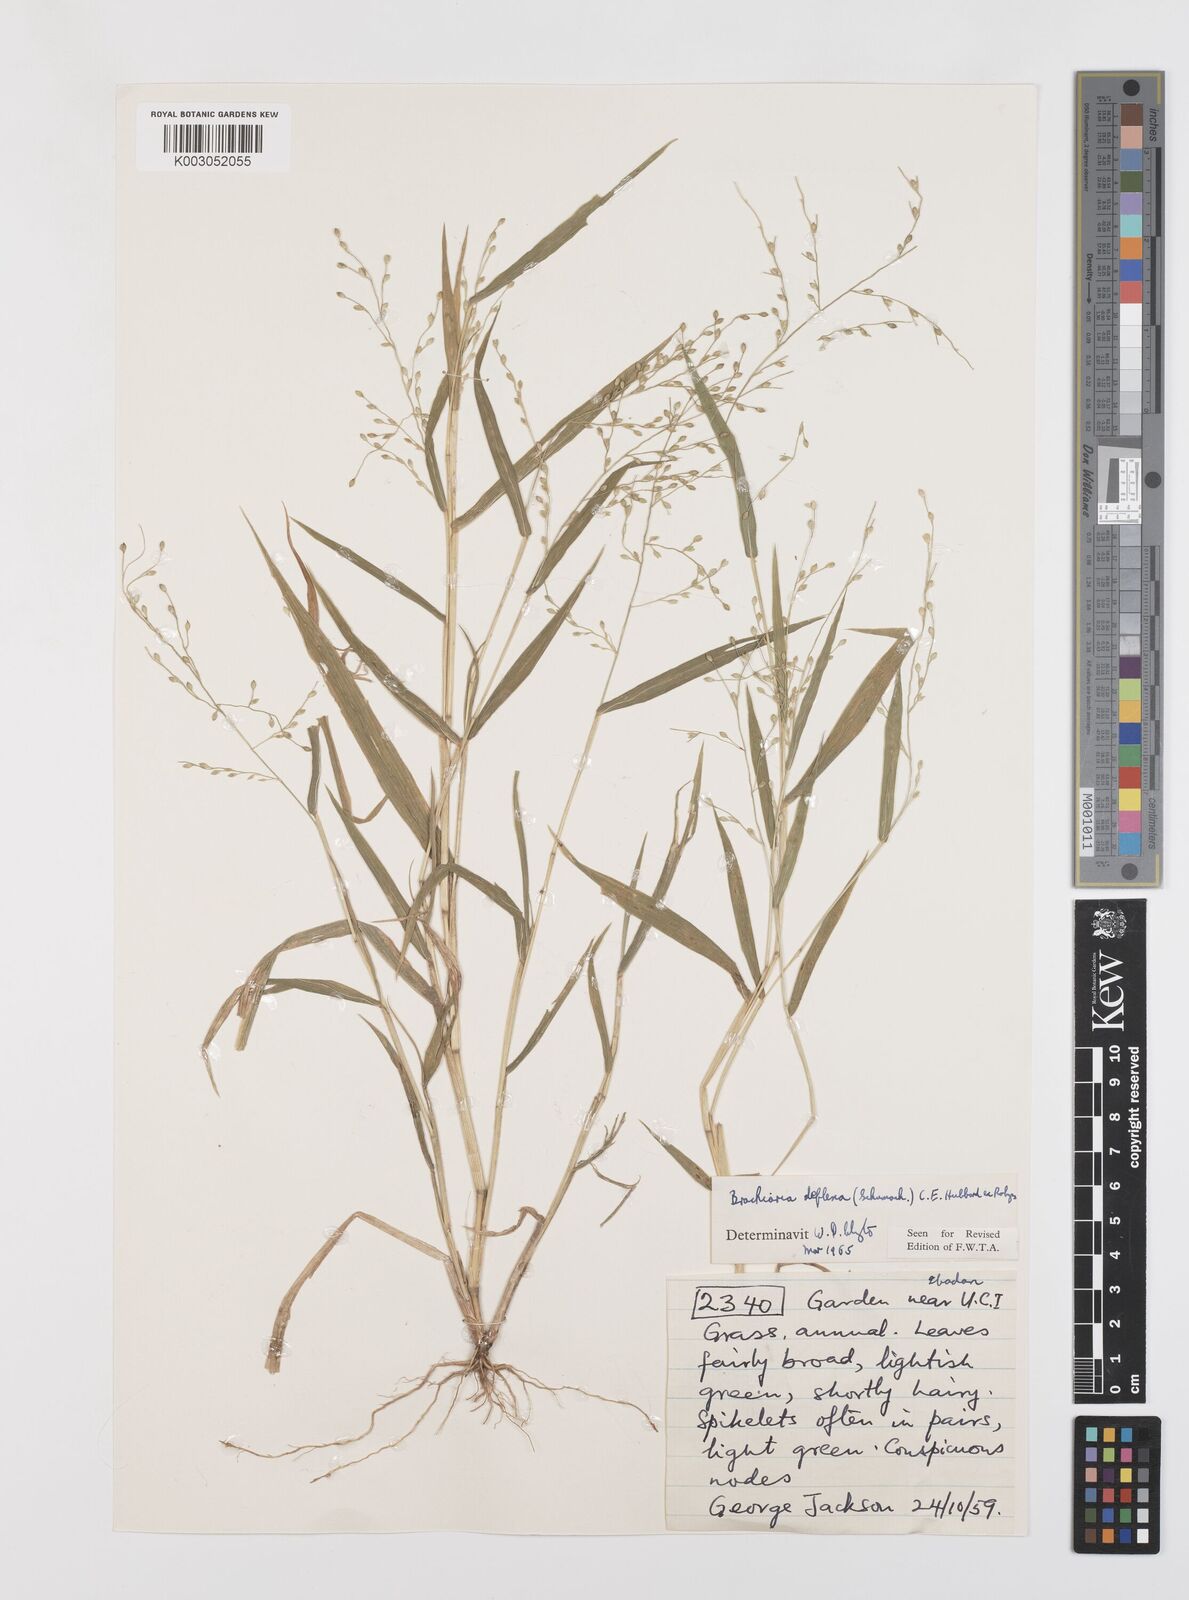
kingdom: Plantae
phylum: Tracheophyta
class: Liliopsida
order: Poales
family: Poaceae
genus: Urochloa
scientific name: Urochloa deflexa
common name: Guinea millet
